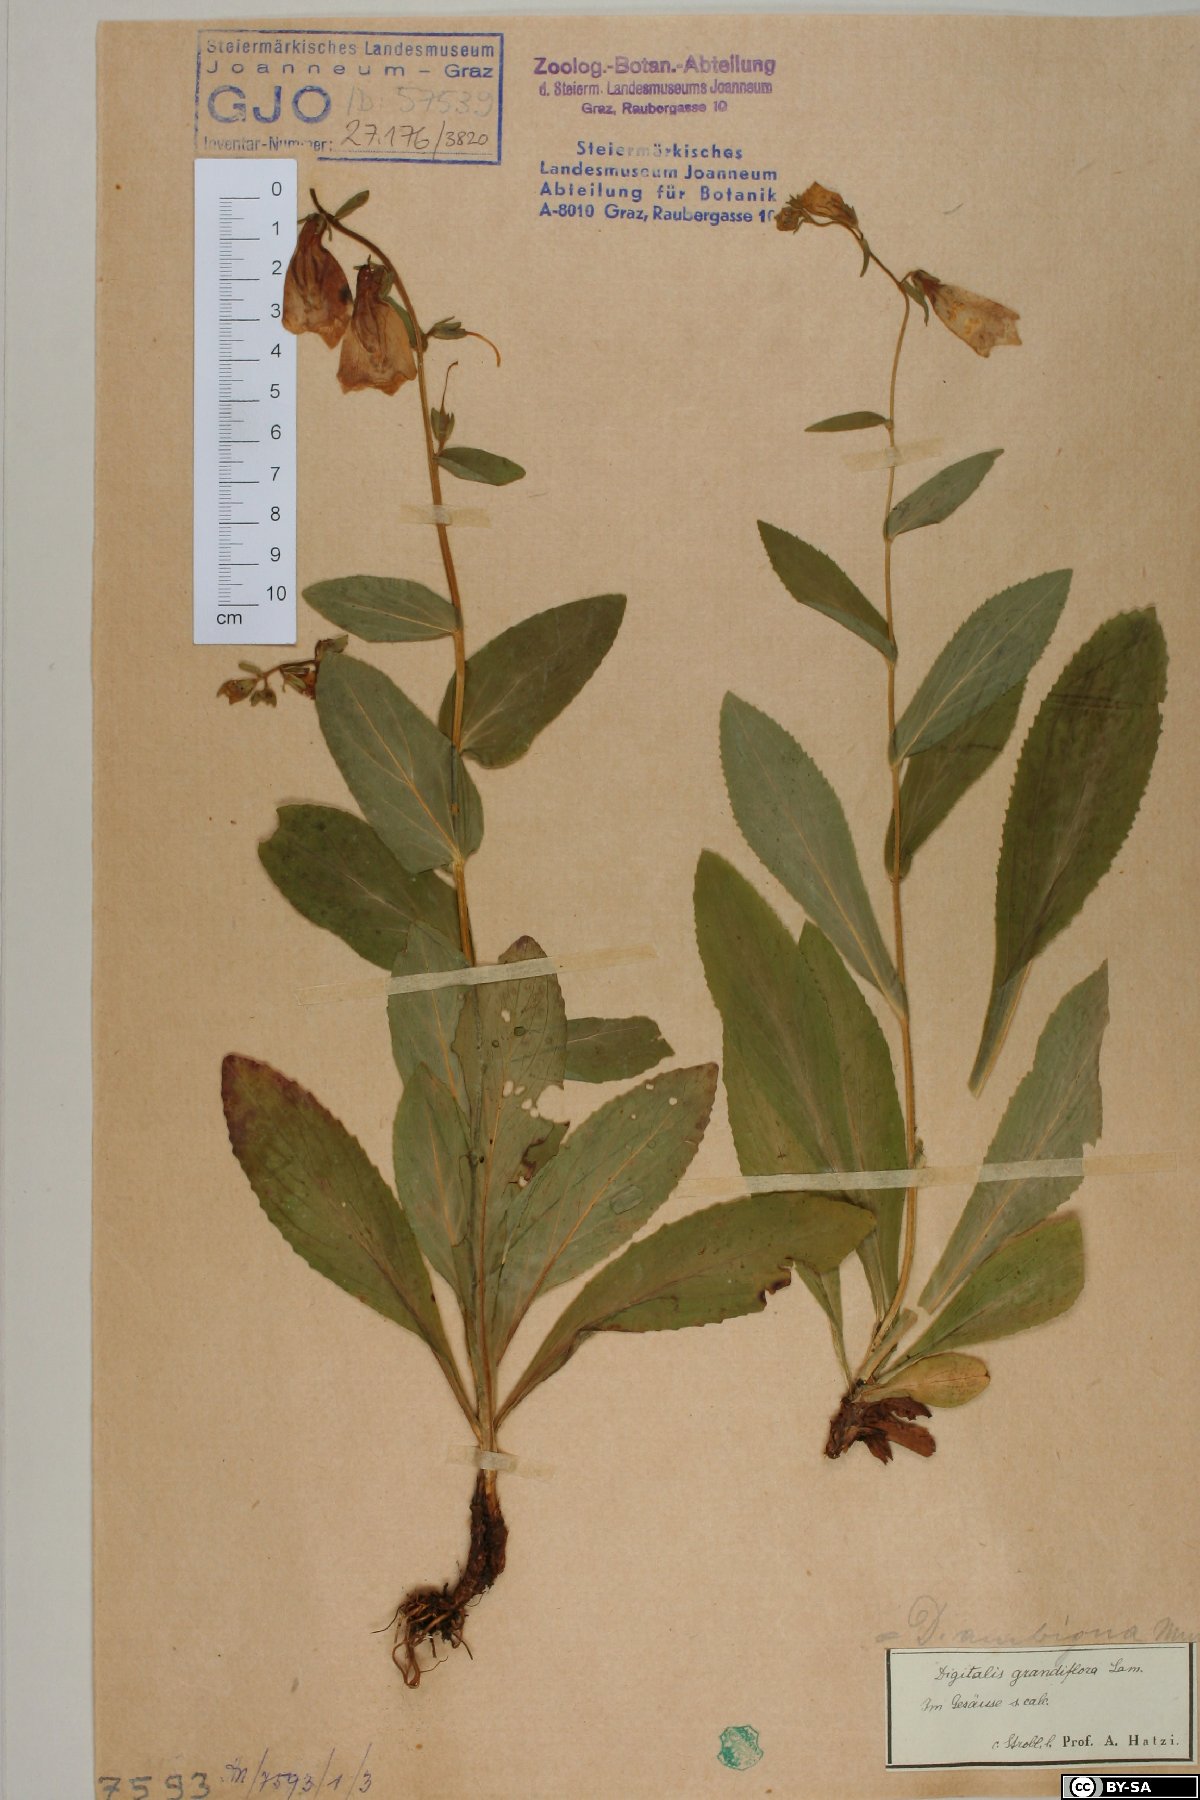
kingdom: Plantae
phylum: Tracheophyta
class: Magnoliopsida
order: Lamiales
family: Plantaginaceae
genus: Digitalis
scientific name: Digitalis grandiflora
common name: Yellow foxglove
